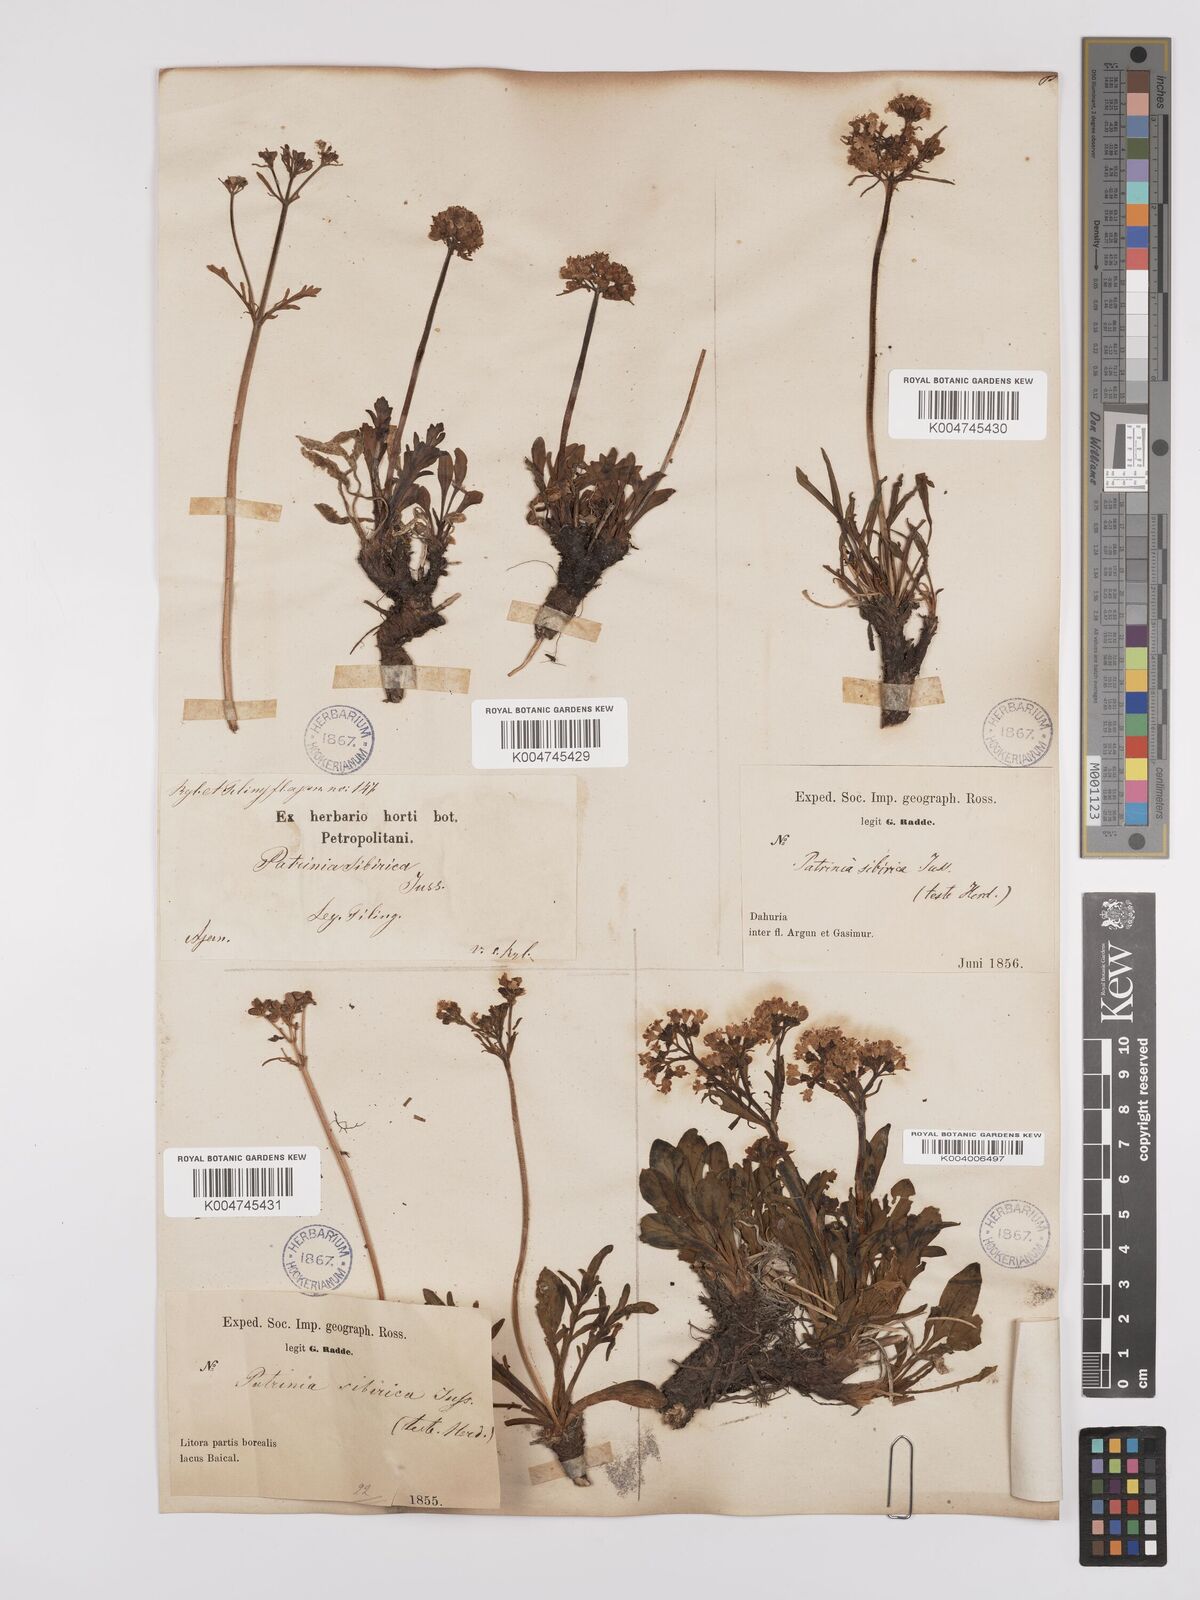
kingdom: Plantae
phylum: Tracheophyta
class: Magnoliopsida
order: Dipsacales
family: Caprifoliaceae
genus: Patrinia
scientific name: Patrinia sibirica
